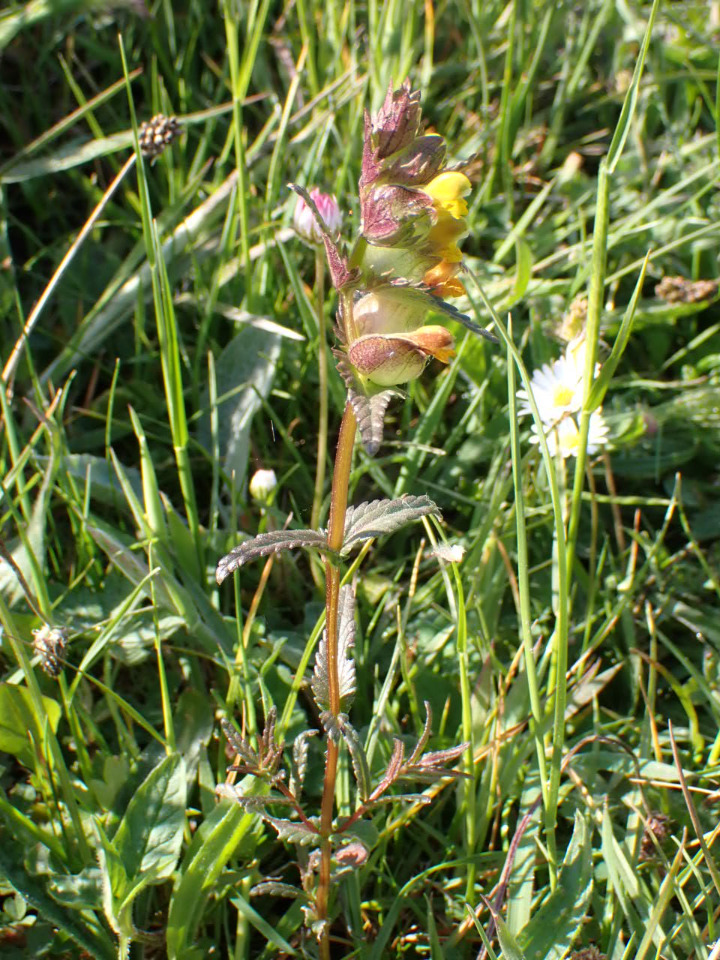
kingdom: Plantae
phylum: Tracheophyta
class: Magnoliopsida
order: Lamiales
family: Orobanchaceae
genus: Rhinanthus
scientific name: Rhinanthus minor
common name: Liden skjaller
